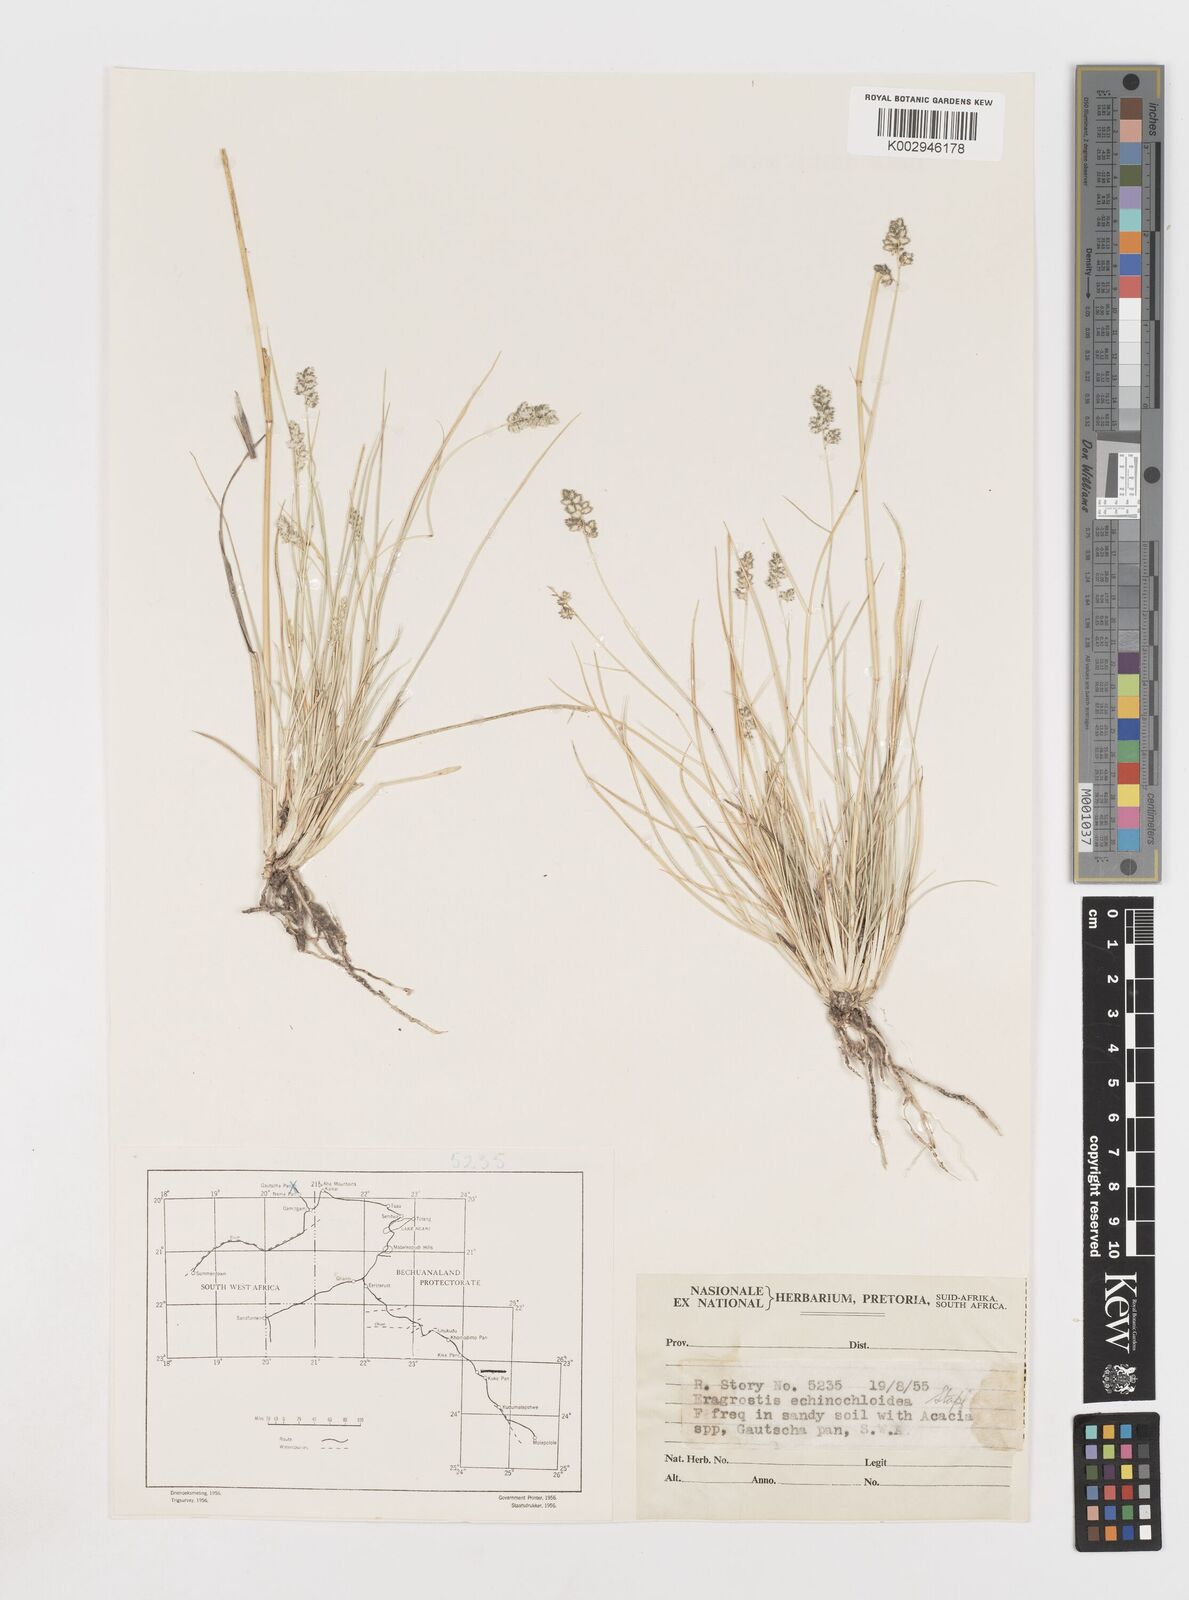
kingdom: Plantae
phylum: Tracheophyta
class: Liliopsida
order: Poales
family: Poaceae
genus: Eragrostis
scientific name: Eragrostis echinochloidea
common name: African lovegrass
